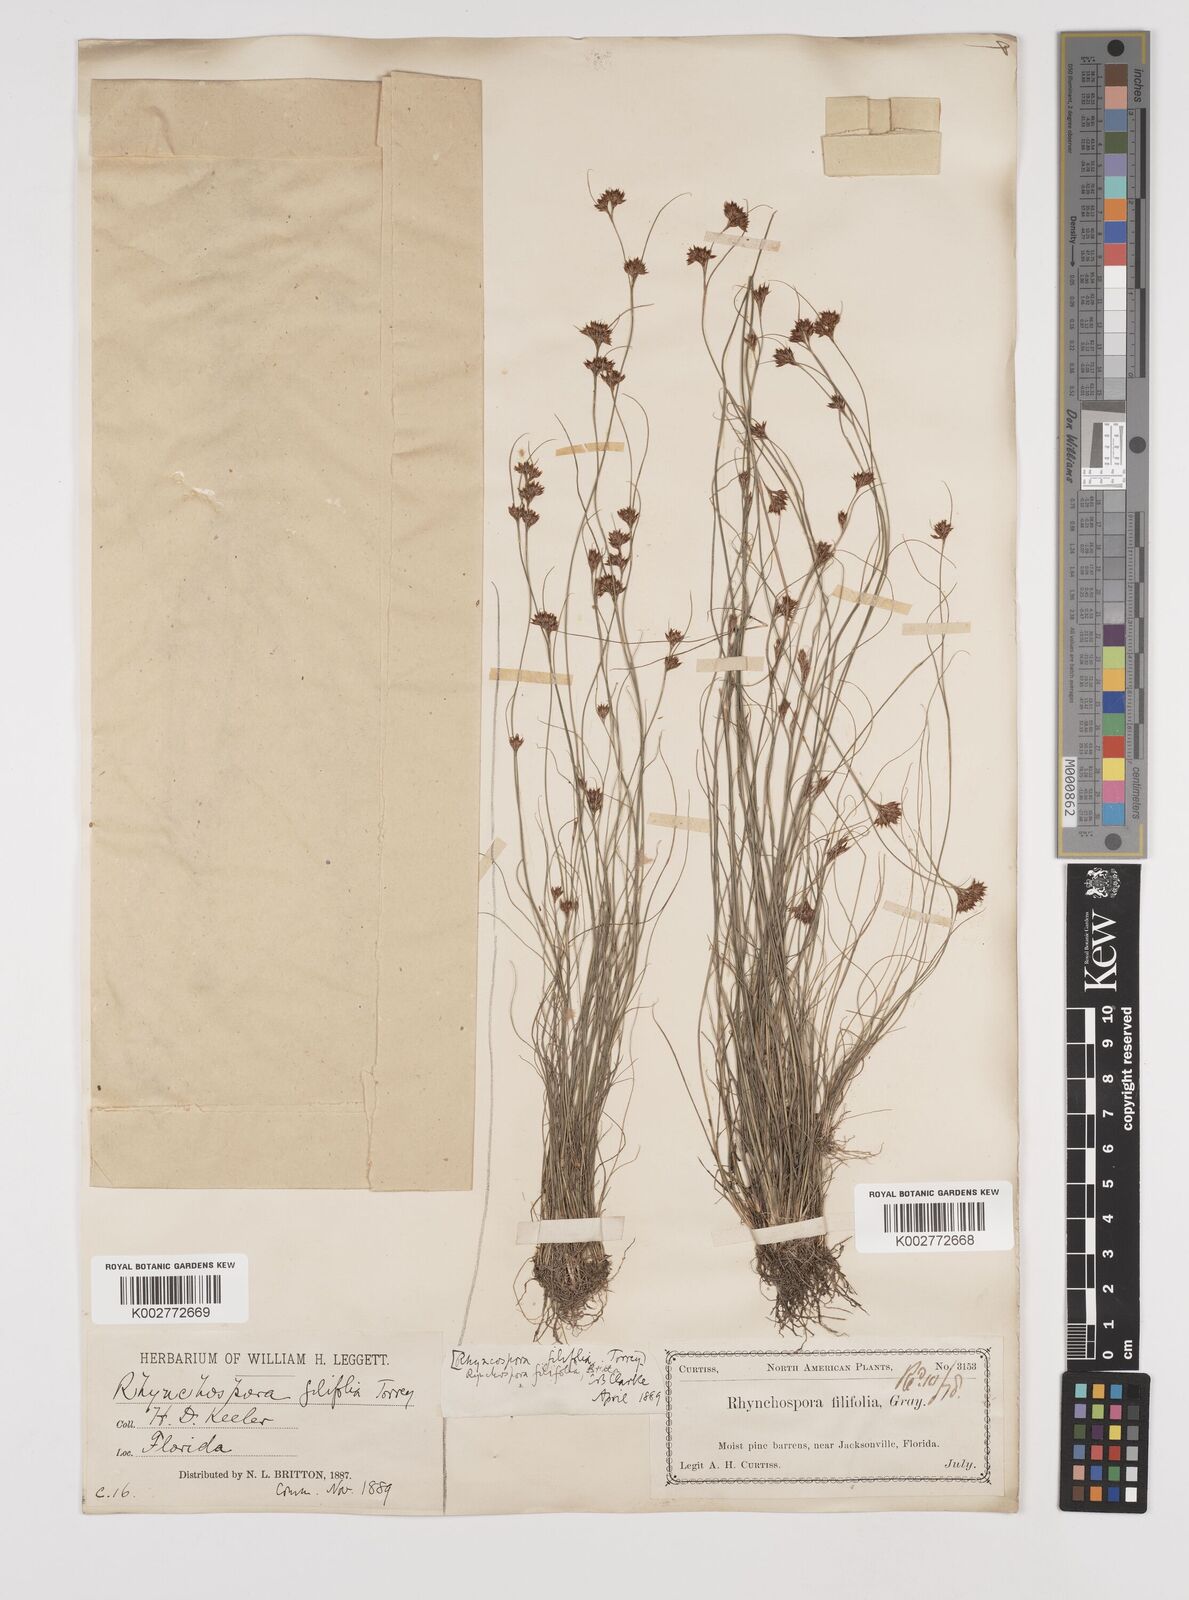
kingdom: Plantae
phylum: Tracheophyta
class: Liliopsida
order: Poales
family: Cyperaceae
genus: Rhynchospora
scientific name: Rhynchospora filifolia
